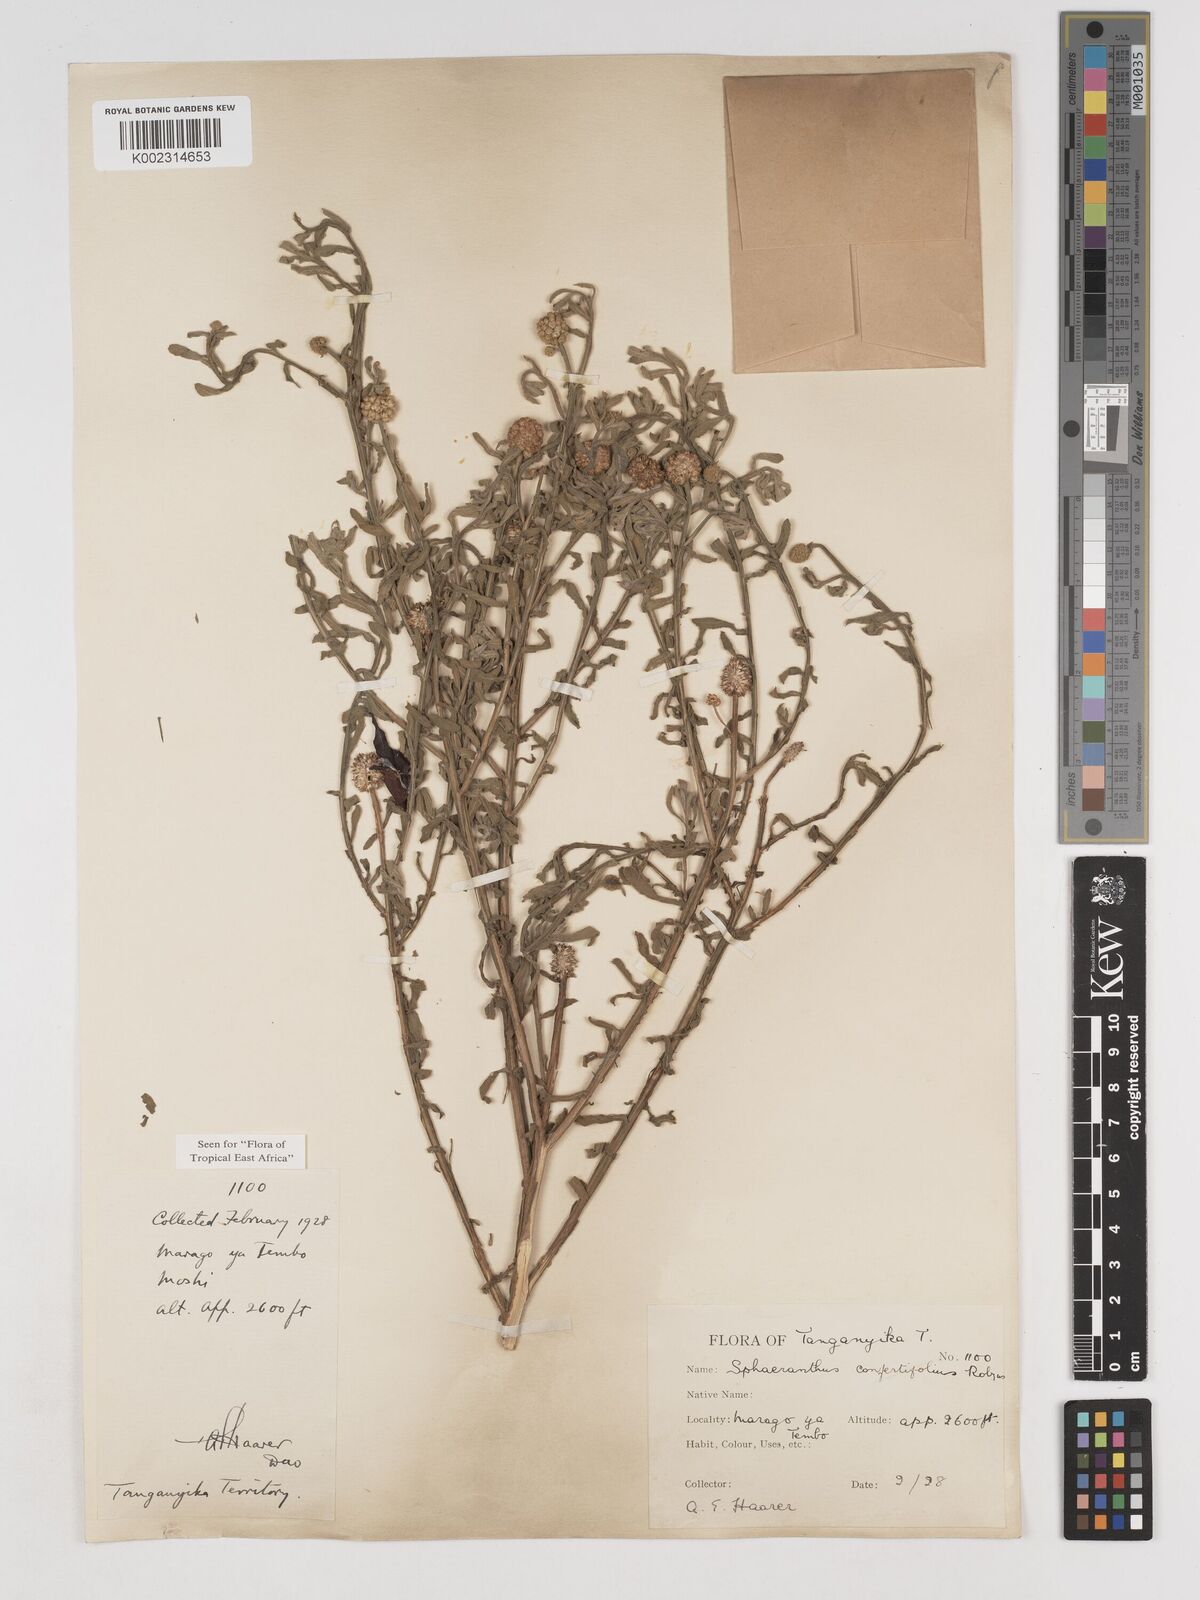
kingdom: Plantae
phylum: Tracheophyta
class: Magnoliopsida
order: Asterales
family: Asteraceae
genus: Sphaeranthus
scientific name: Sphaeranthus confertifolius
